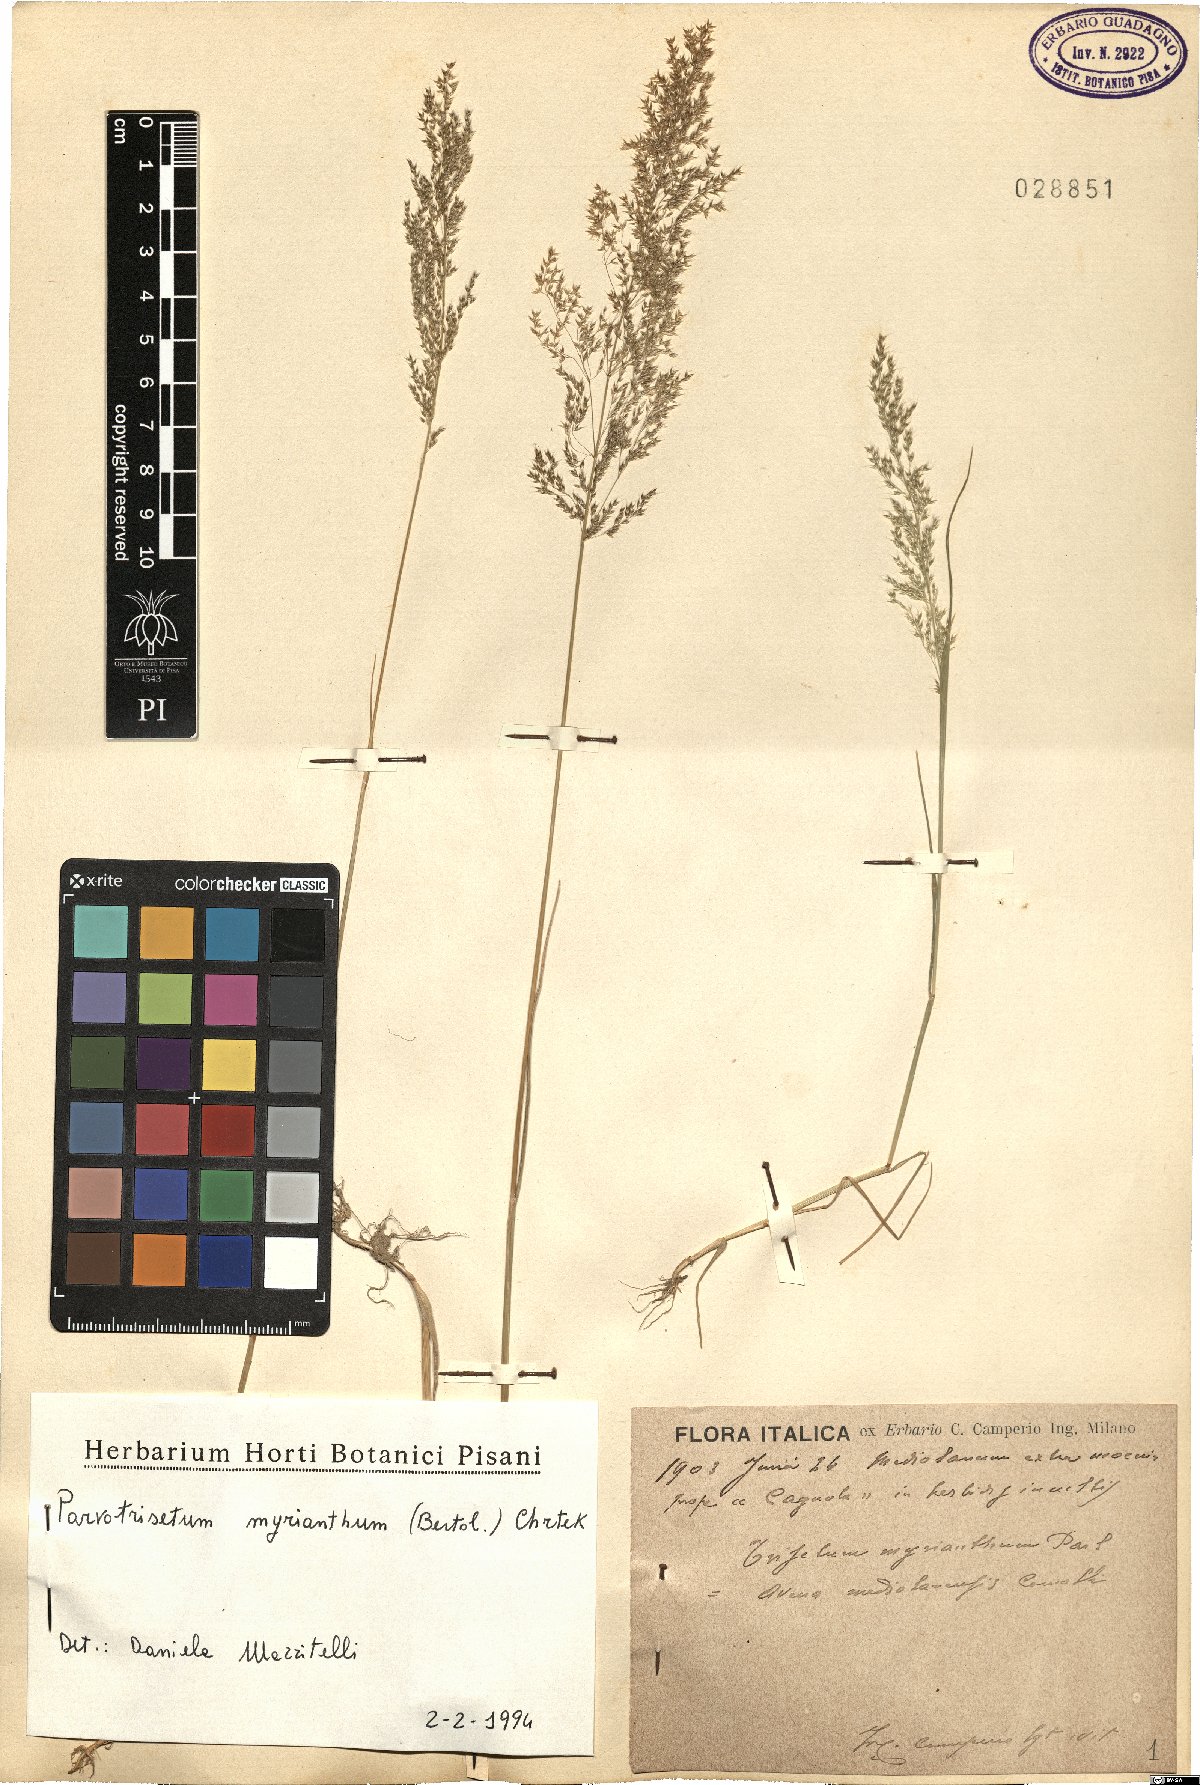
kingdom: Plantae
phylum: Tracheophyta
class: Liliopsida
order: Poales
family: Poaceae
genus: Parvotrisetum
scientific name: Parvotrisetum myrianthum
